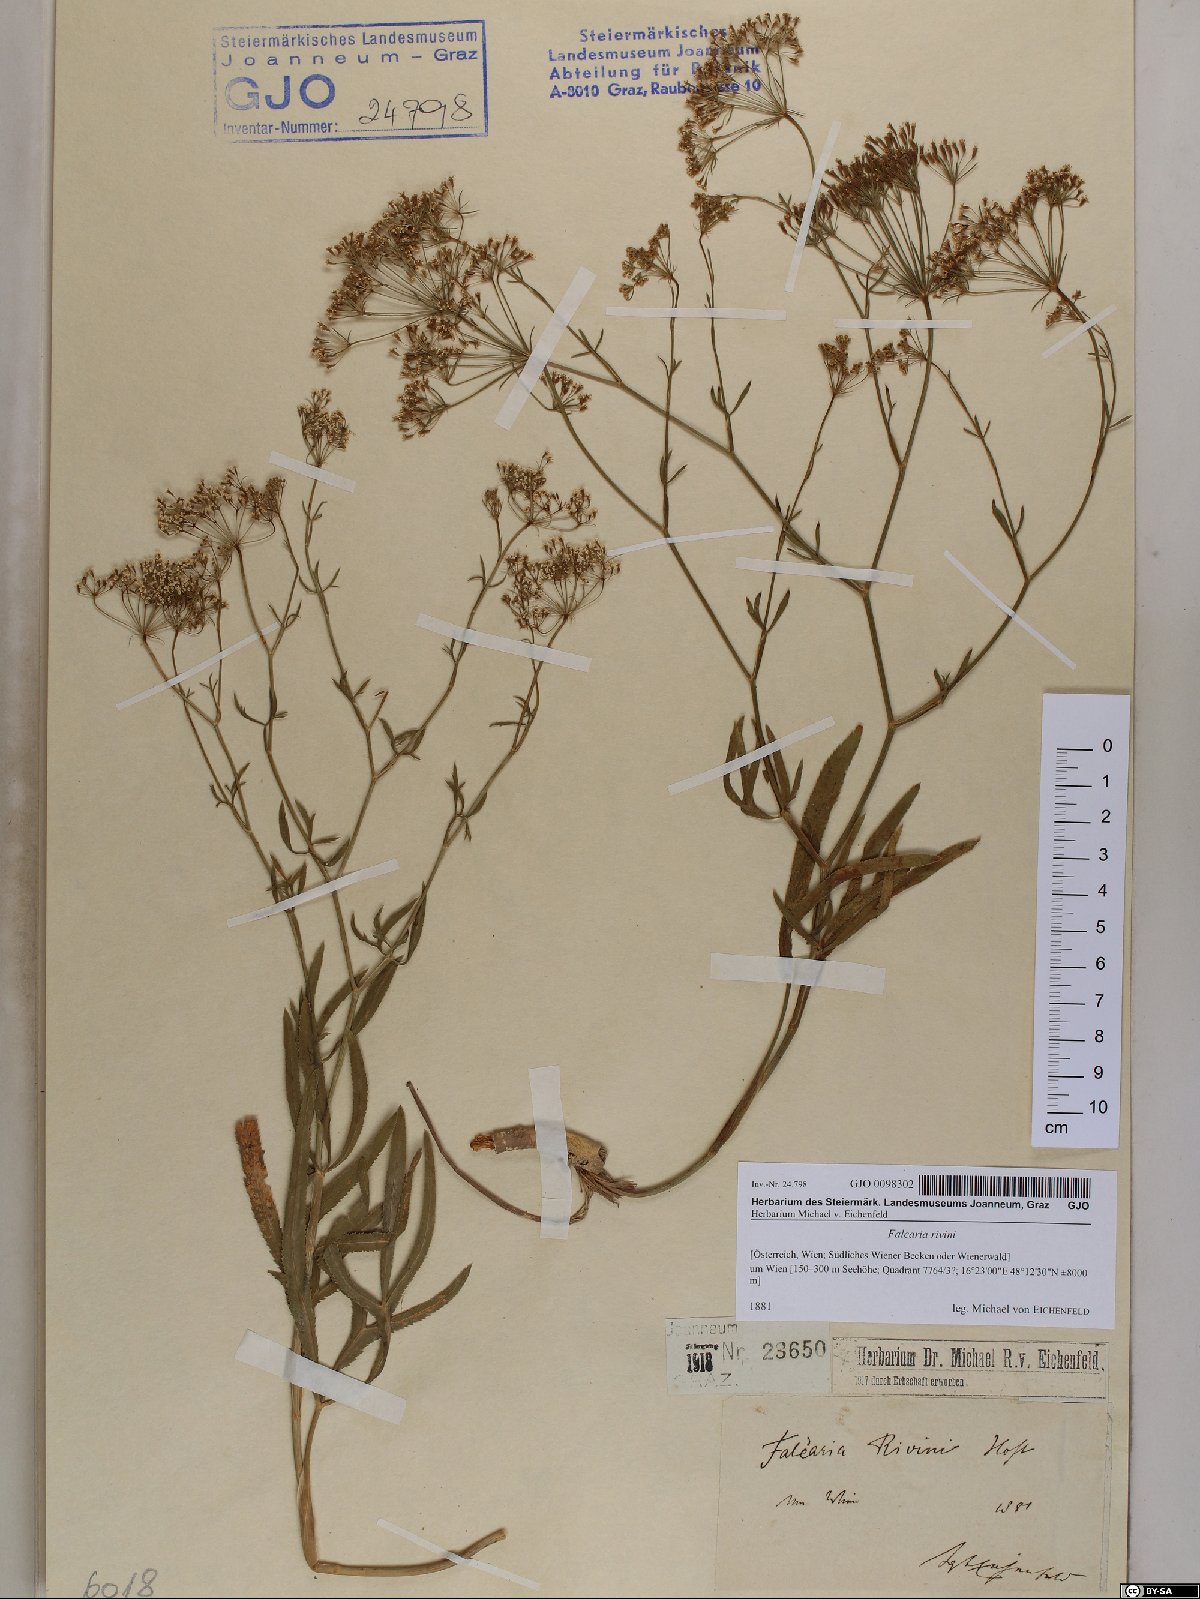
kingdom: Plantae
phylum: Tracheophyta
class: Magnoliopsida
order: Apiales
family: Apiaceae
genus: Falcaria
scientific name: Falcaria vulgaris
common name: Longleaf
